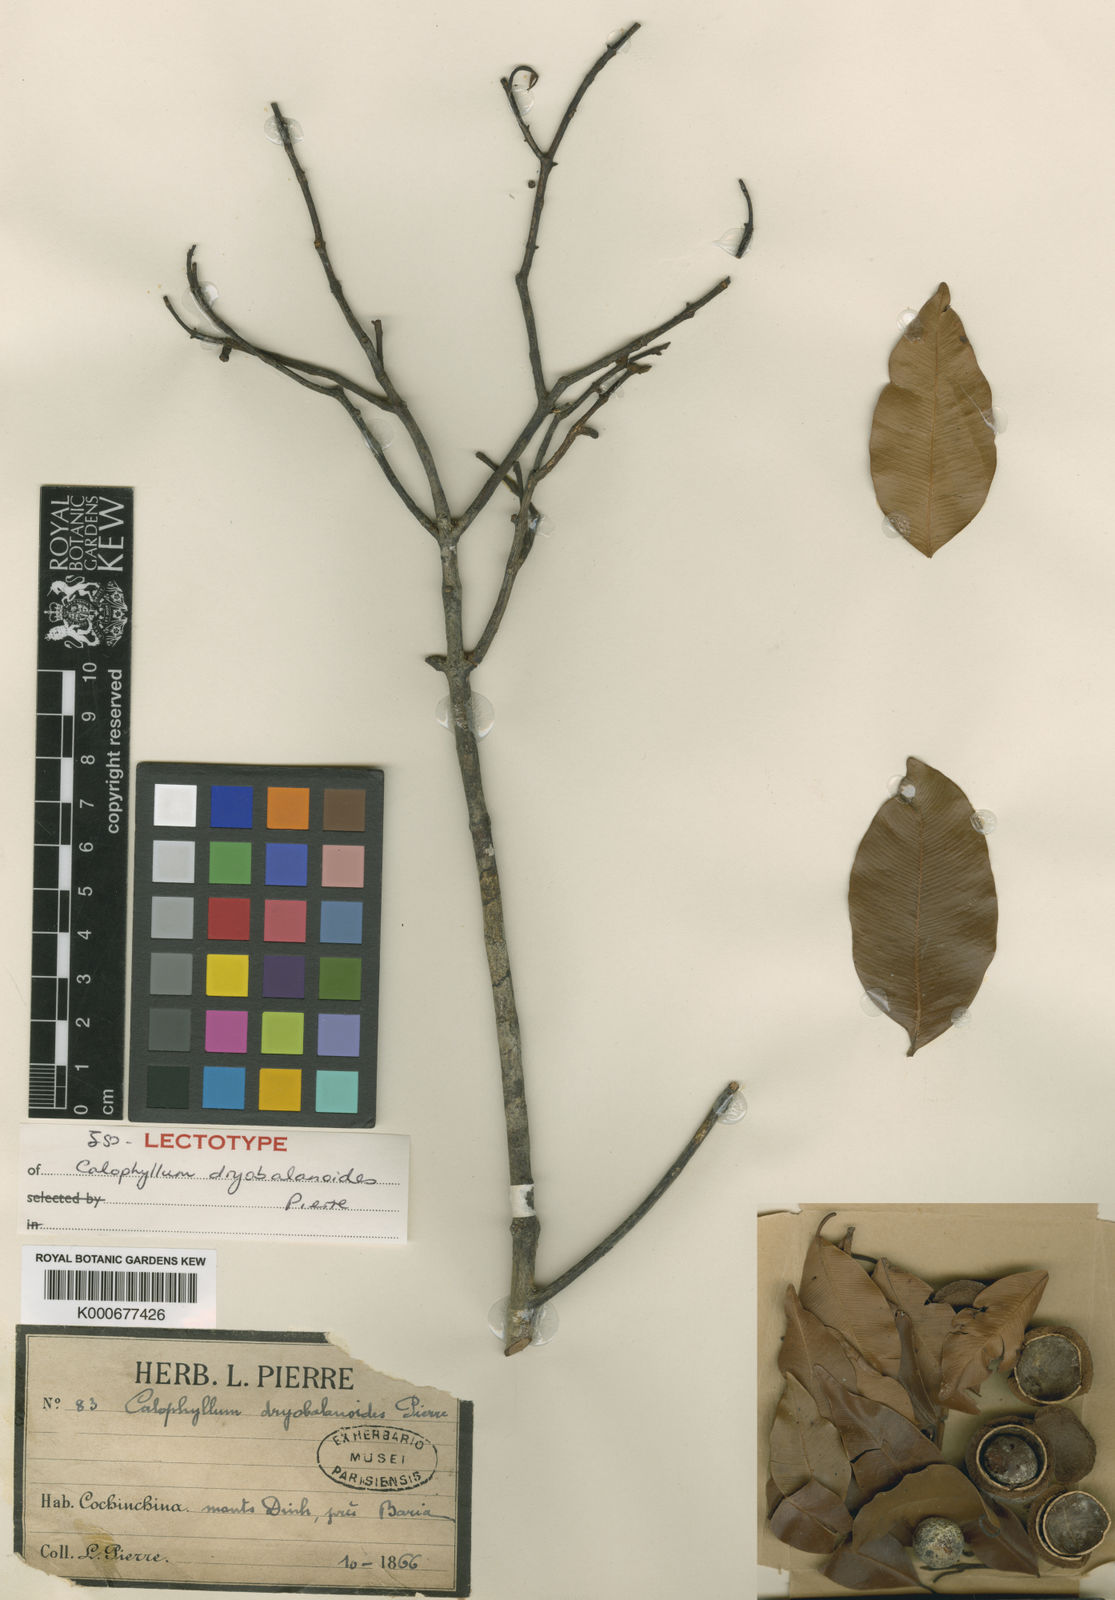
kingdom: Plantae
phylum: Tracheophyta
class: Magnoliopsida
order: Malpighiales
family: Calophyllaceae
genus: Calophyllum
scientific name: Calophyllum dryobalanoides
